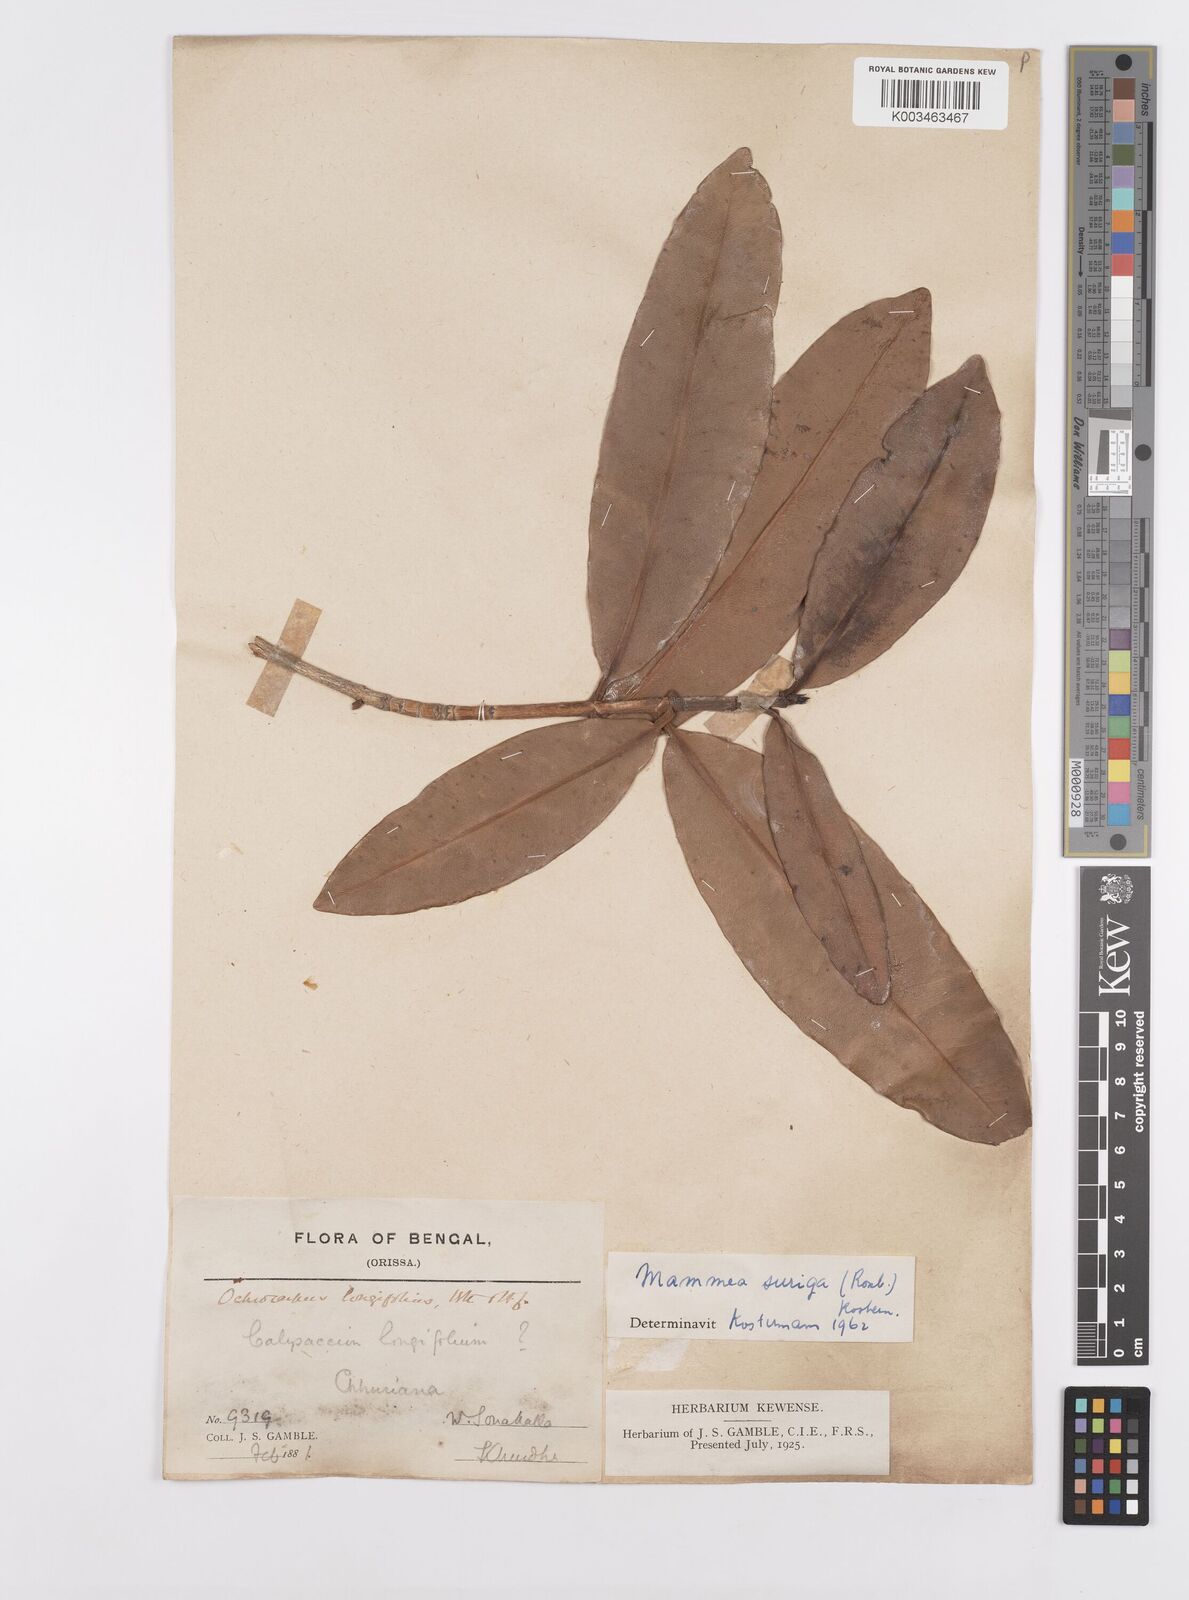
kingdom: Plantae
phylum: Tracheophyta
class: Magnoliopsida
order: Malpighiales
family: Calophyllaceae
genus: Mammea
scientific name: Mammea suriga
